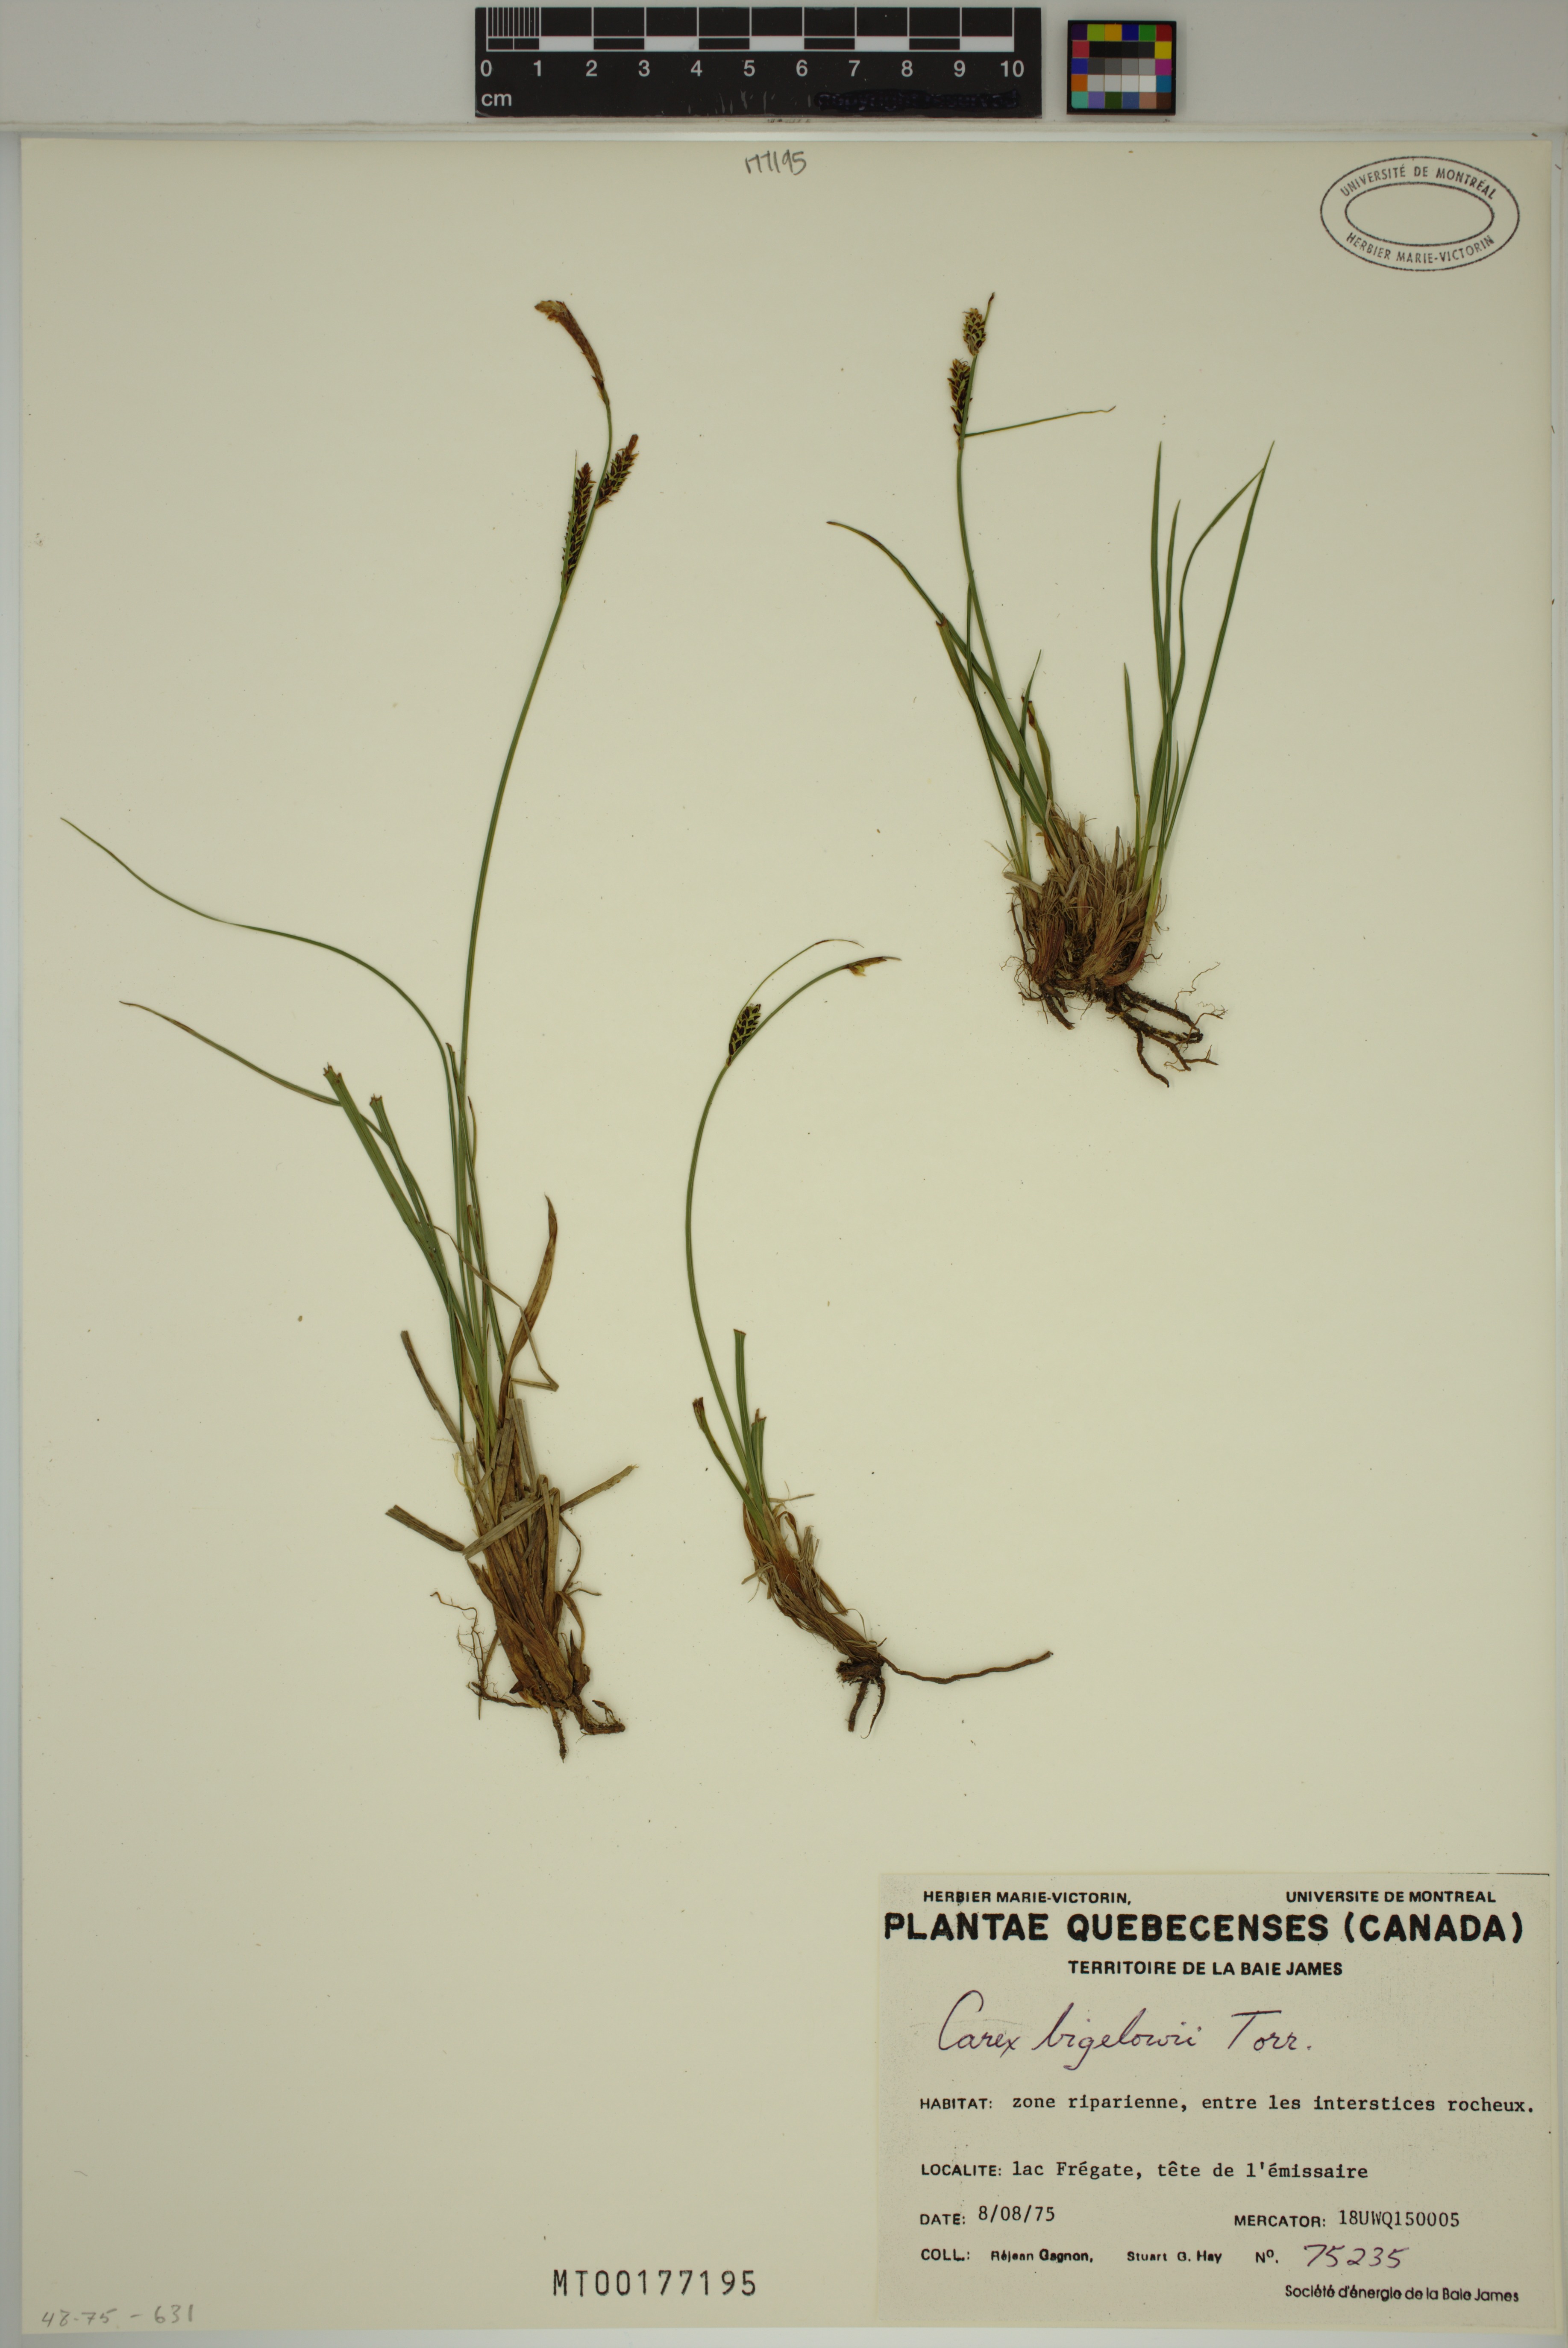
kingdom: Plantae
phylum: Tracheophyta
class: Liliopsida
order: Poales
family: Cyperaceae
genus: Carex
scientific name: Carex bigelowii
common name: Stiff sedge
